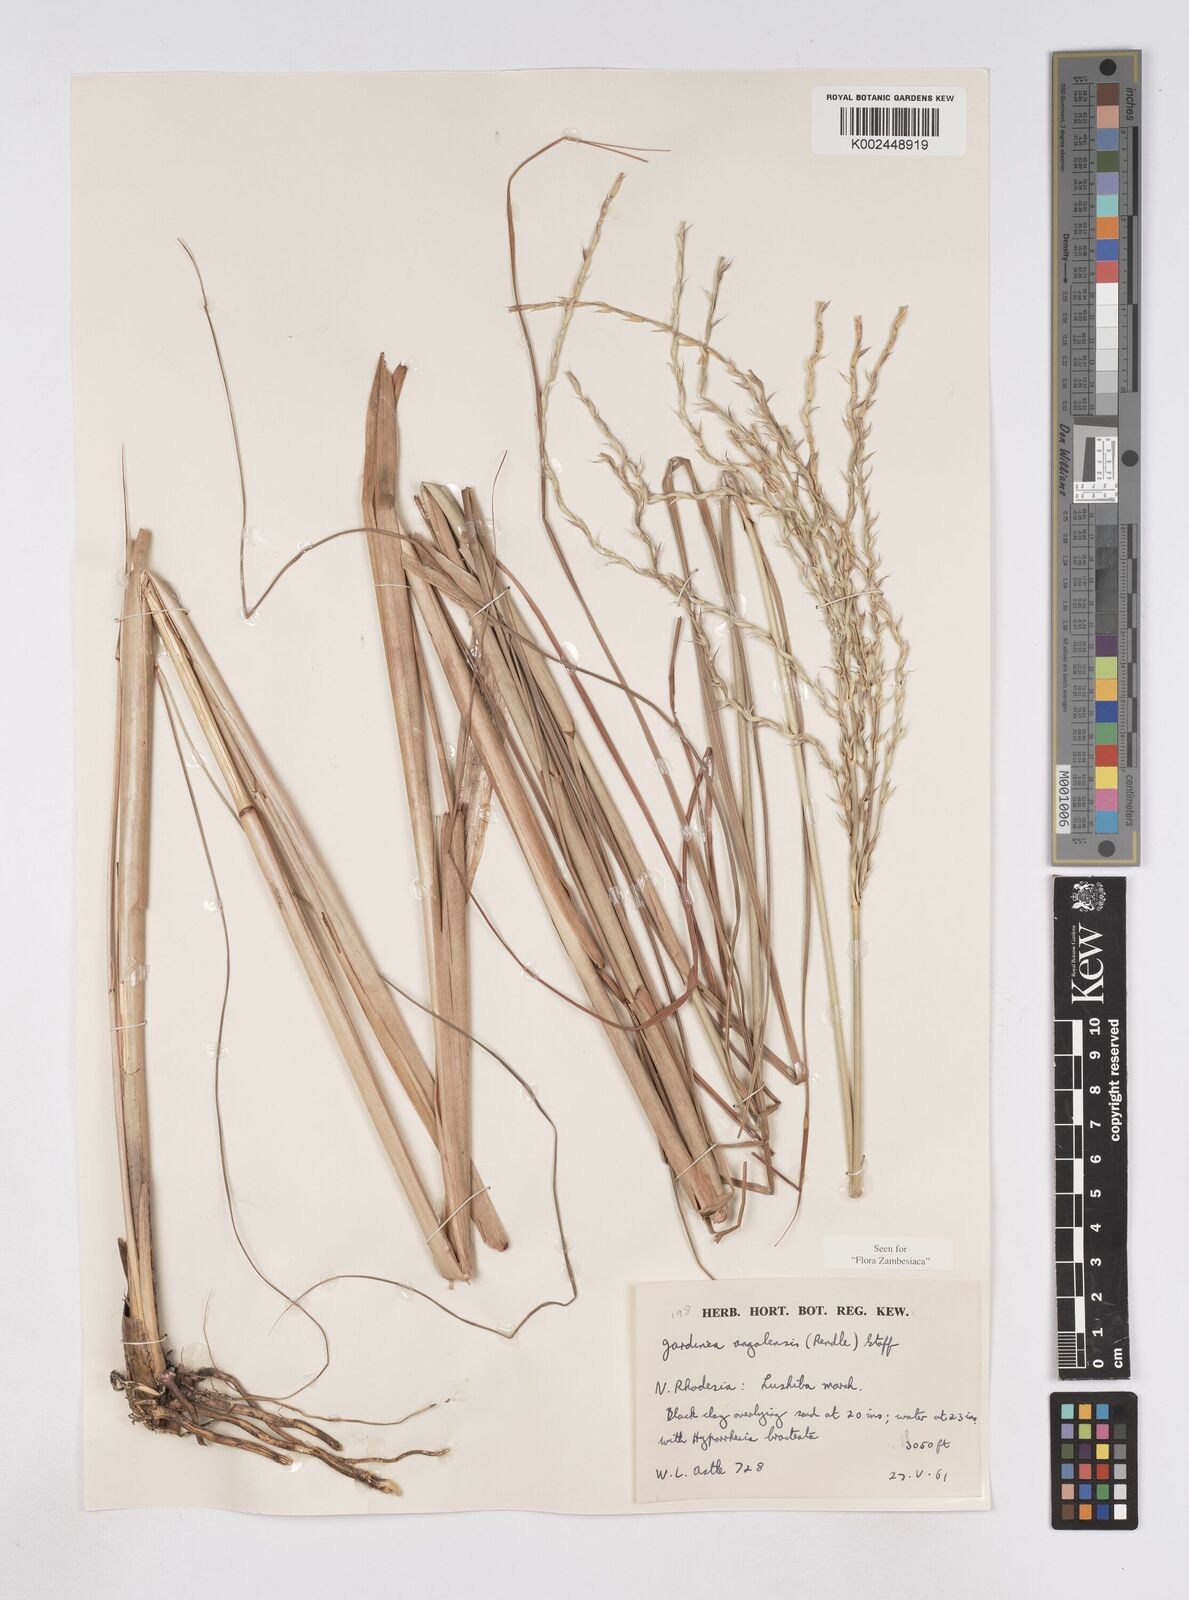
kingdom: Plantae
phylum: Tracheophyta
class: Liliopsida
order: Poales
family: Poaceae
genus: Phacelurus
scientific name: Phacelurus gabonensis
